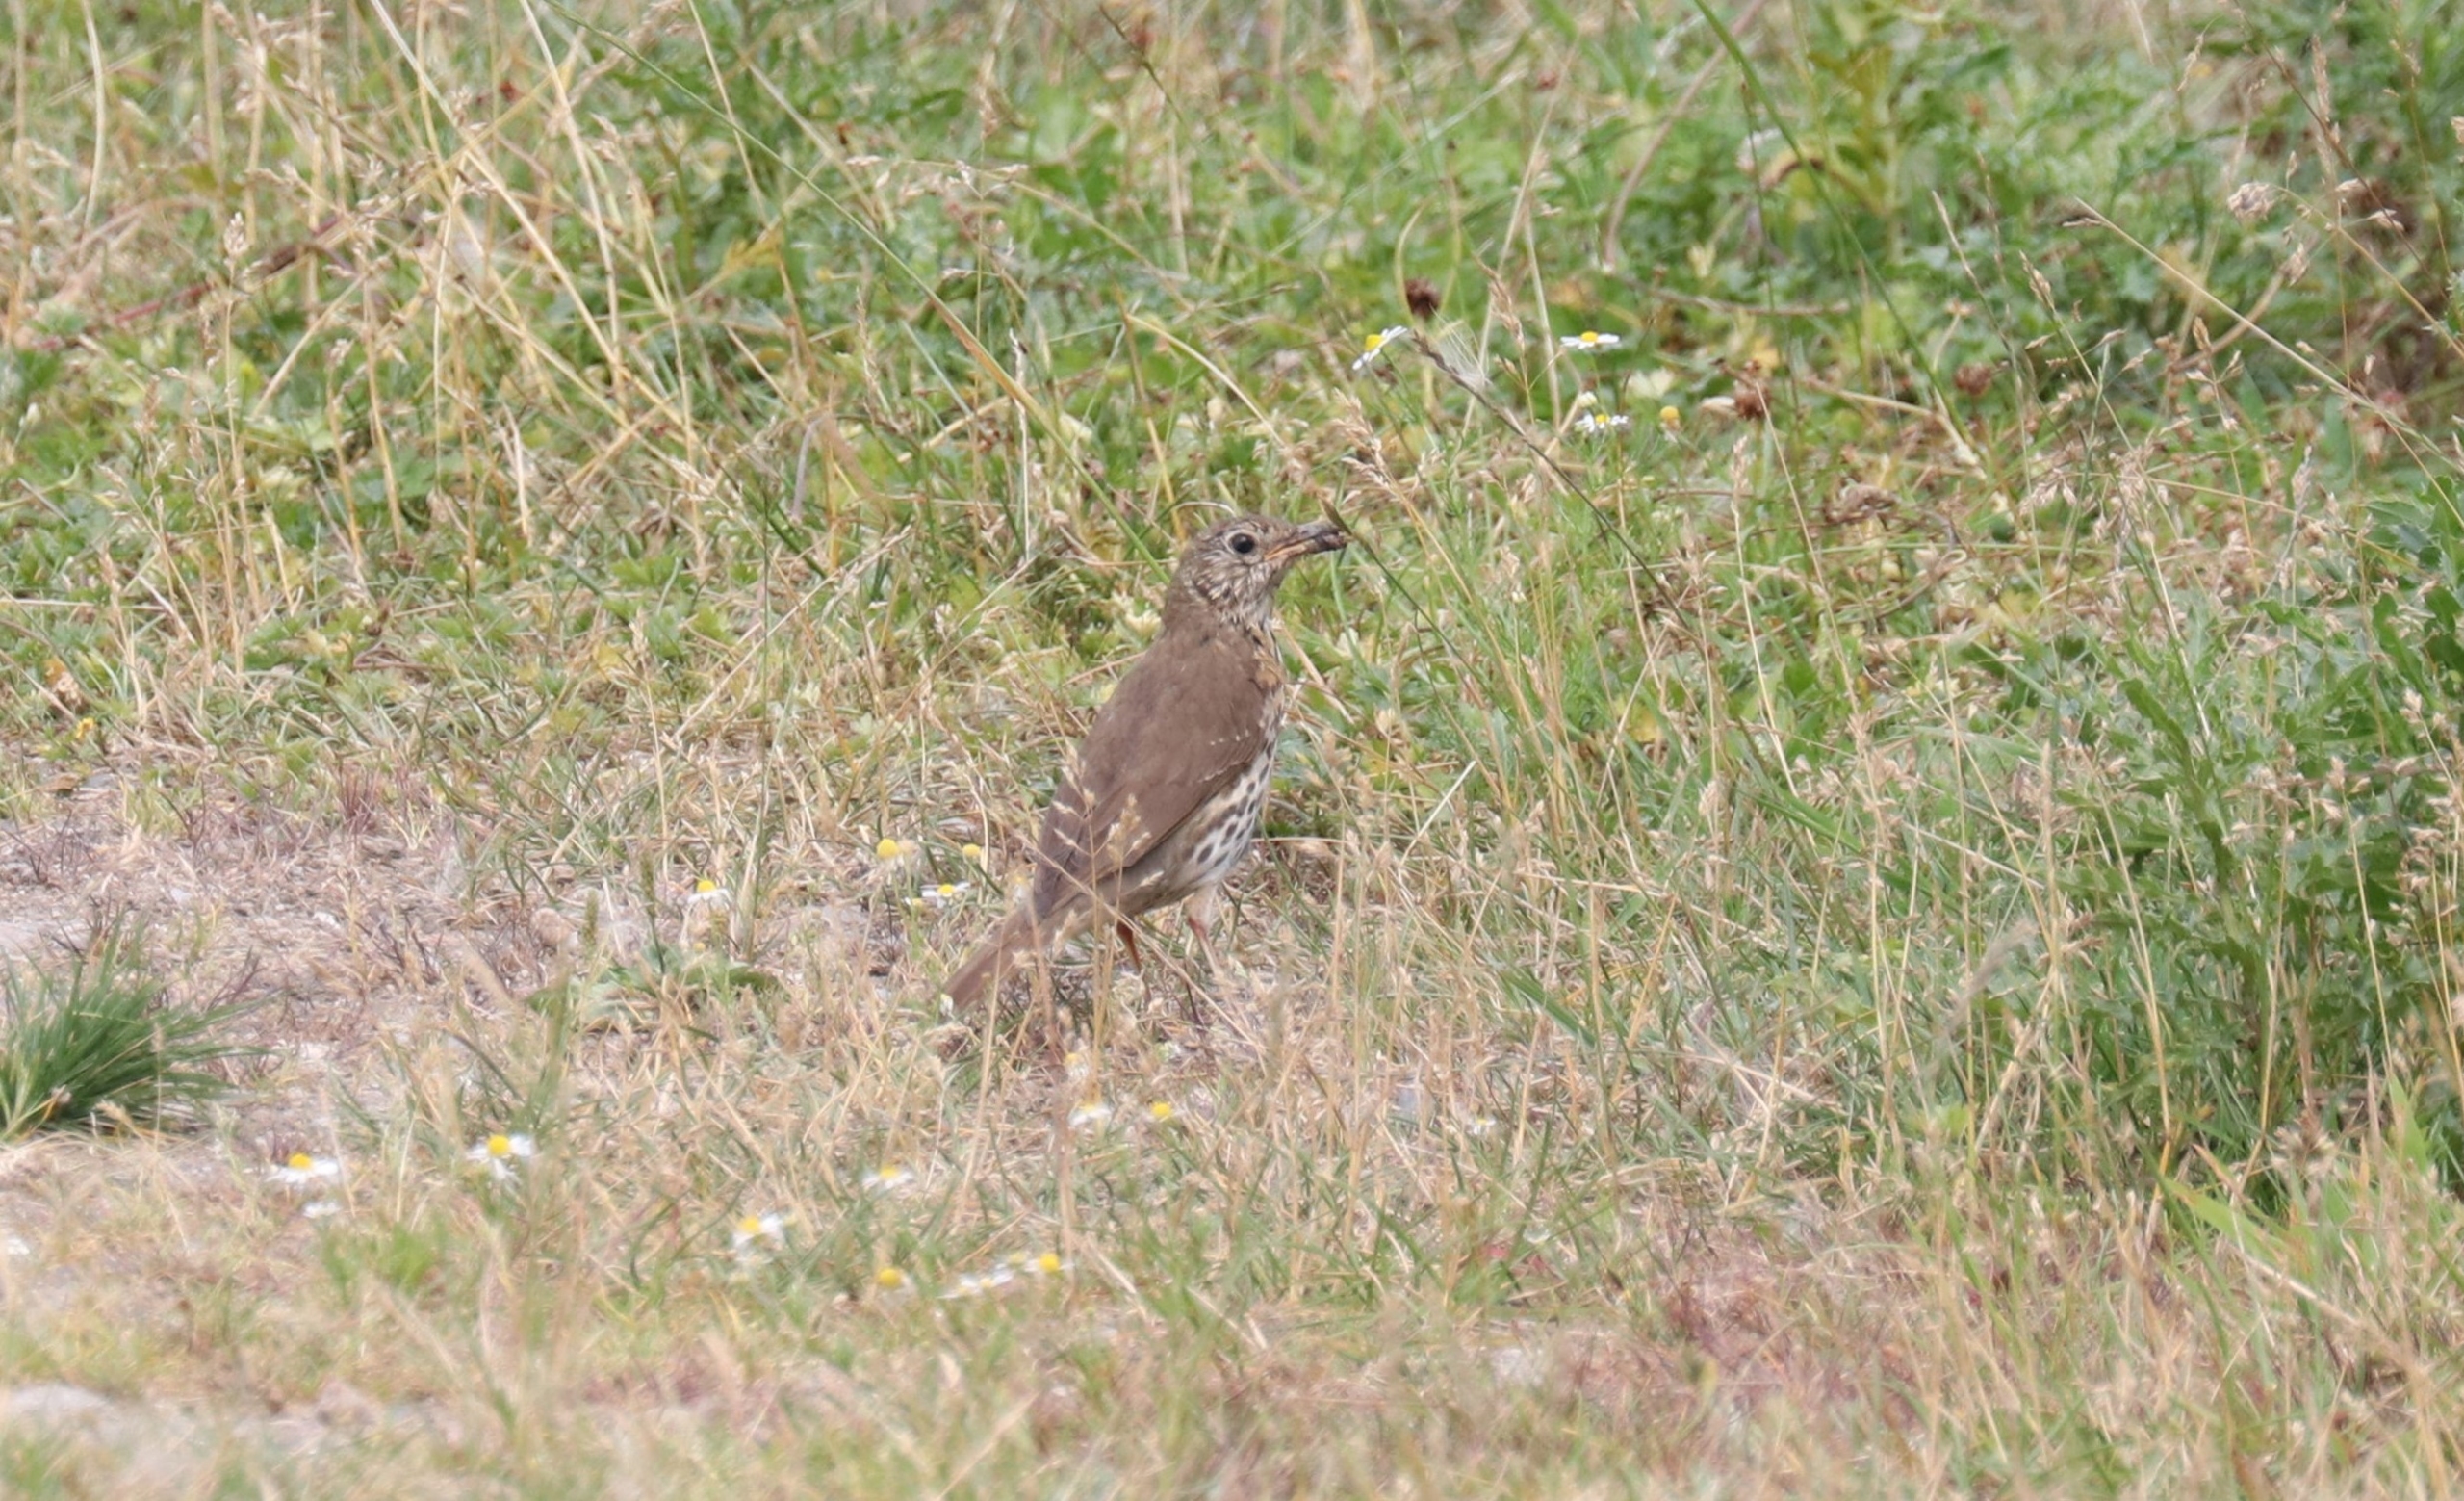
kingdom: Animalia
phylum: Chordata
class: Aves
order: Passeriformes
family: Turdidae
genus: Turdus
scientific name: Turdus philomelos
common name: Sangdrossel
